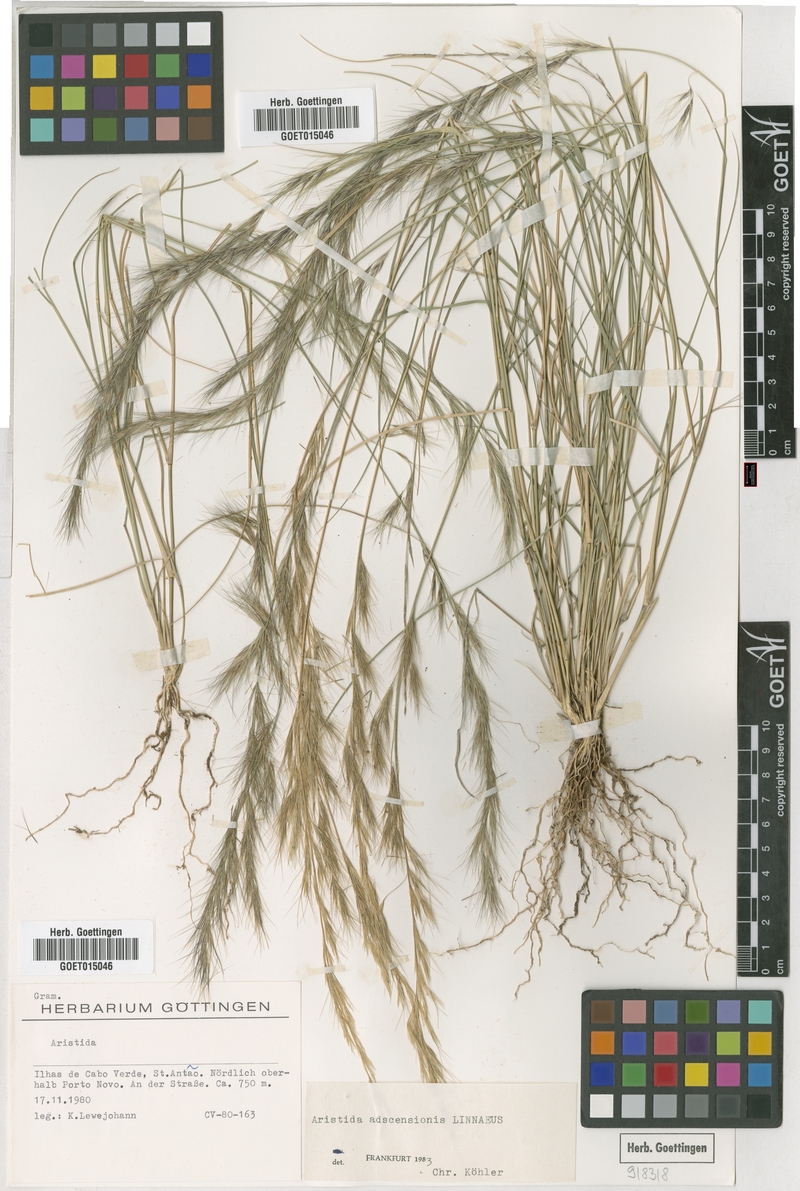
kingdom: Plantae
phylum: Tracheophyta
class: Liliopsida
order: Poales
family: Poaceae
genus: Aristida
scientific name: Aristida adscensionis
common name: Sixweeks threeawn
